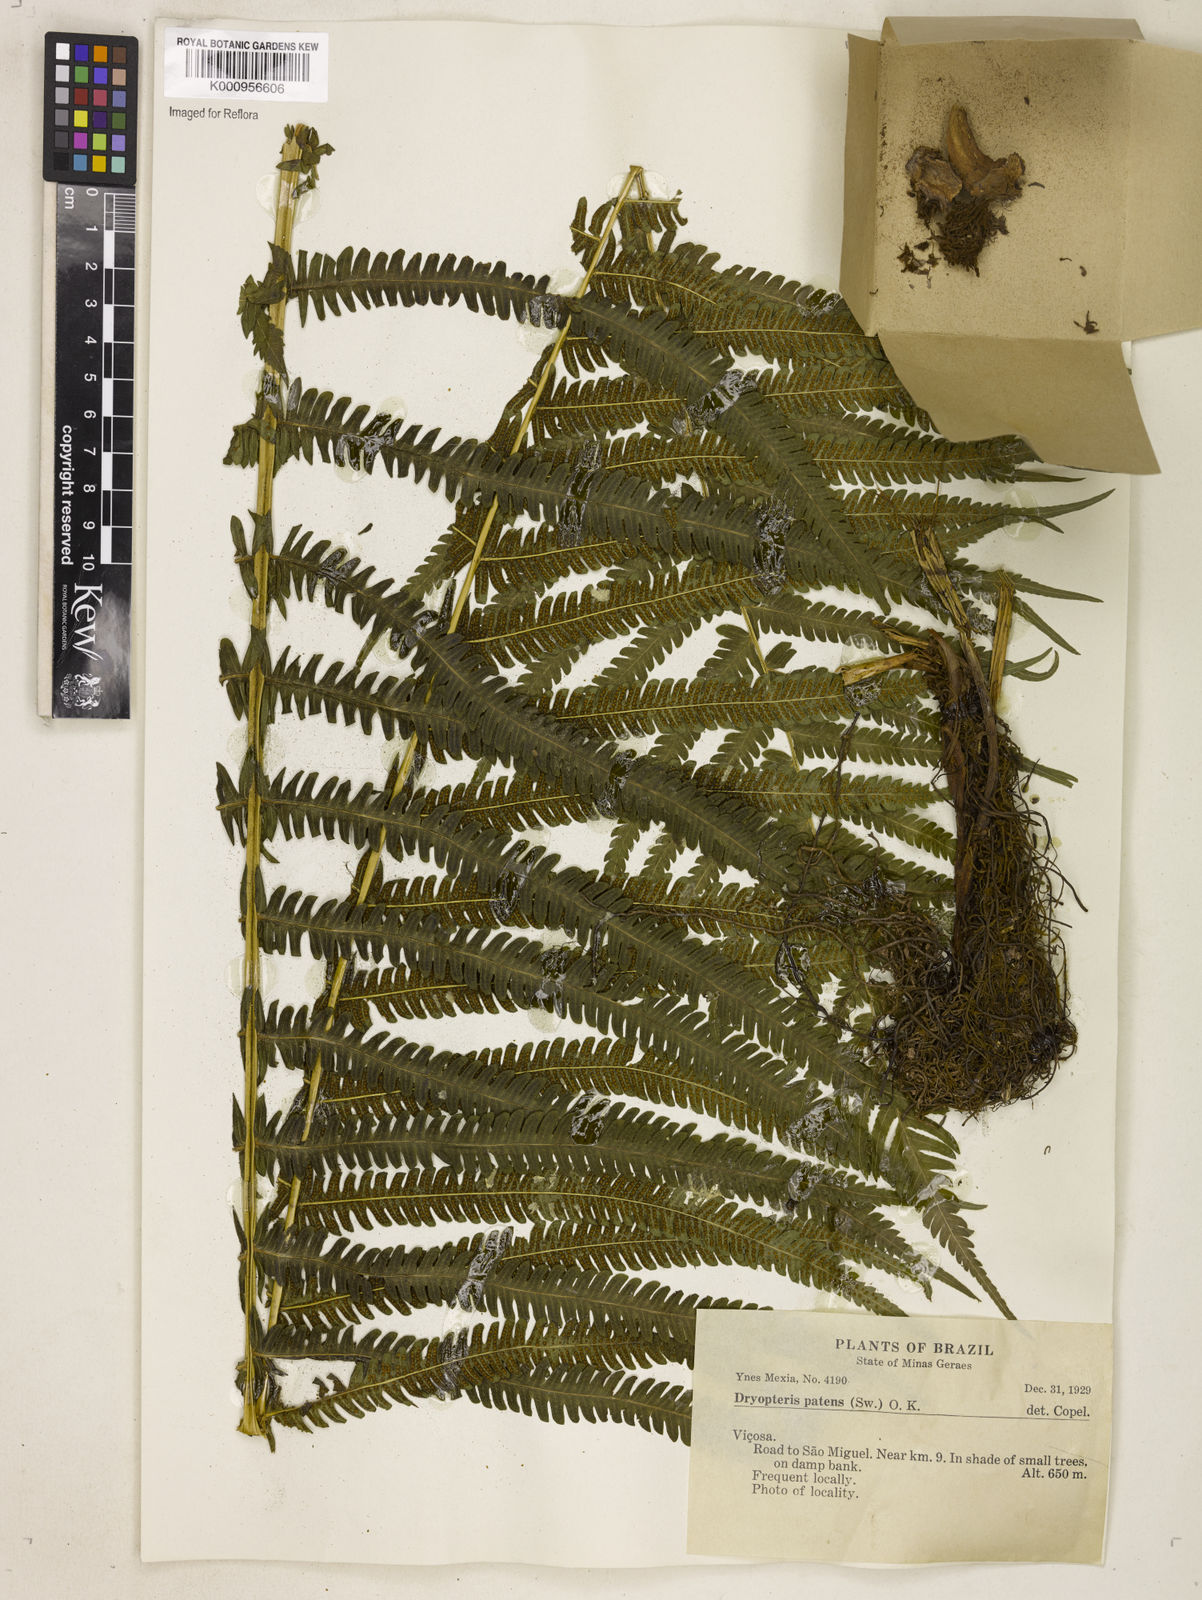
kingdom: Plantae
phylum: Tracheophyta
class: Polypodiopsida
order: Polypodiales
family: Thelypteridaceae
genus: Pelazoneuron
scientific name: Pelazoneuron patens
